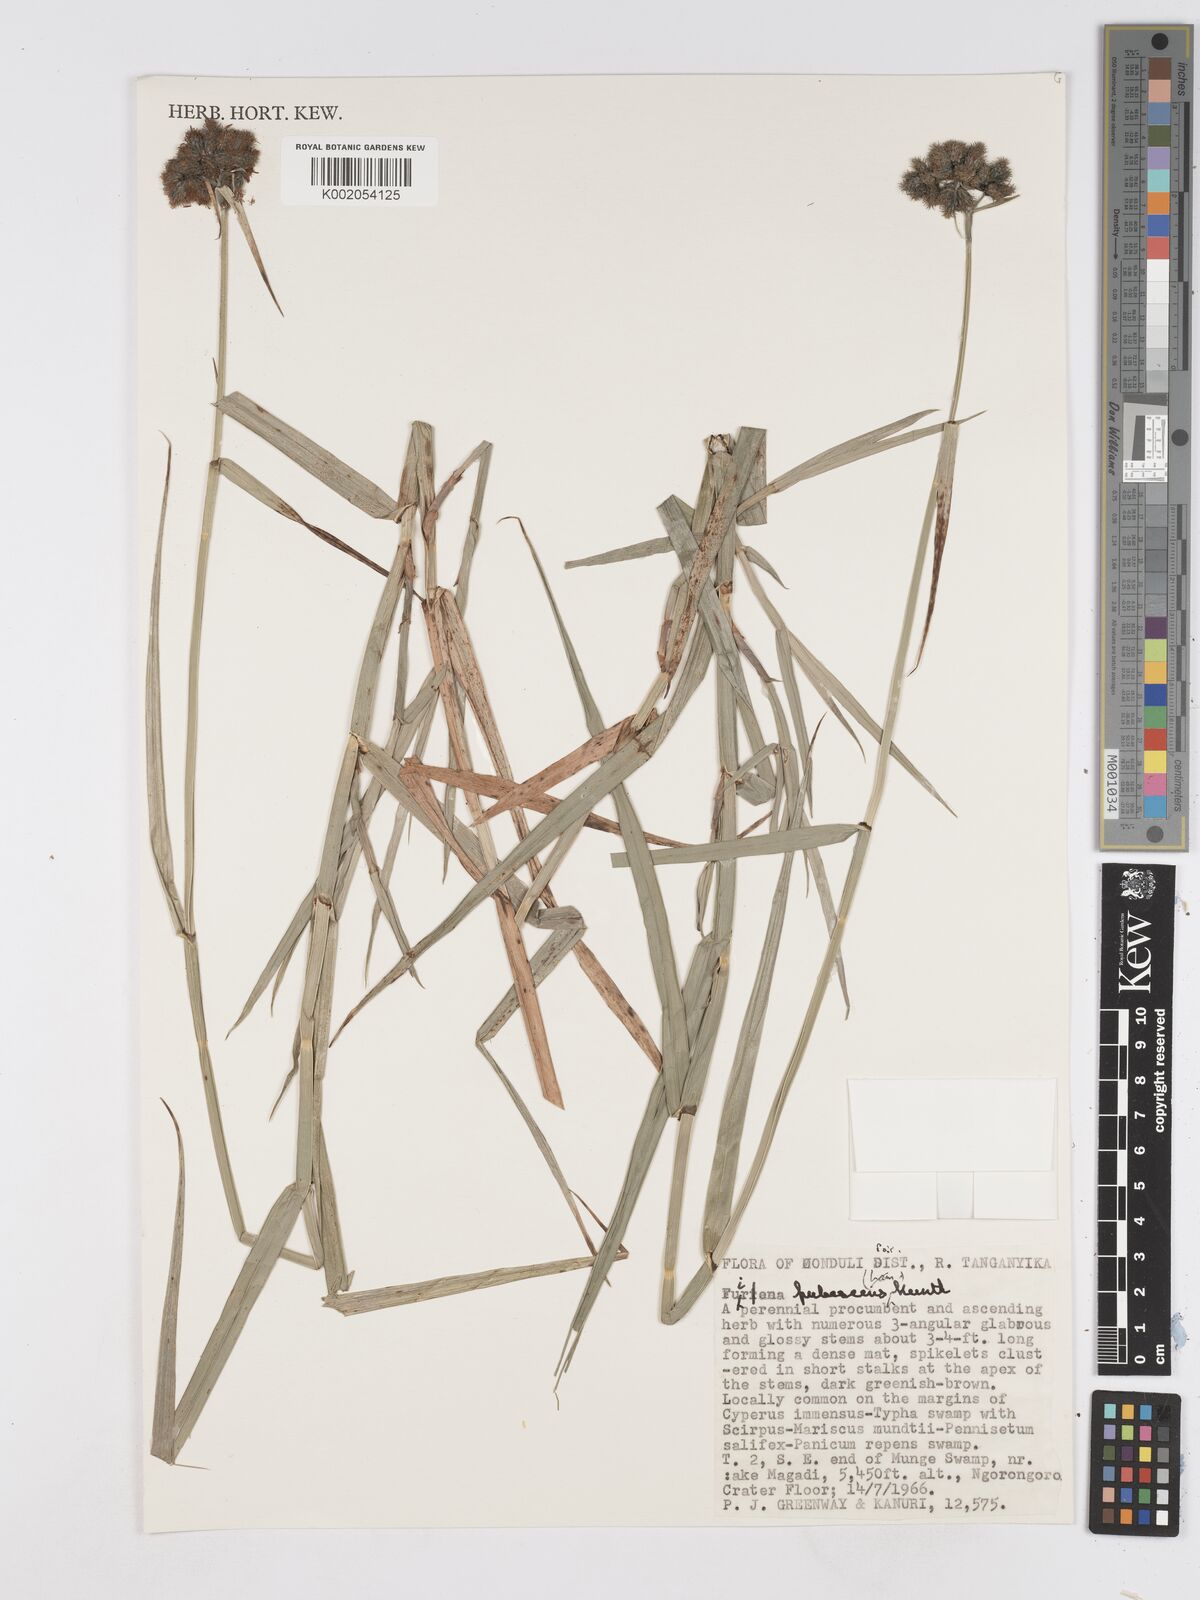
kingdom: Plantae
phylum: Tracheophyta
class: Liliopsida
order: Poales
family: Cyperaceae
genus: Fuirena
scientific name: Fuirena pubescens
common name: Hairy sedge
